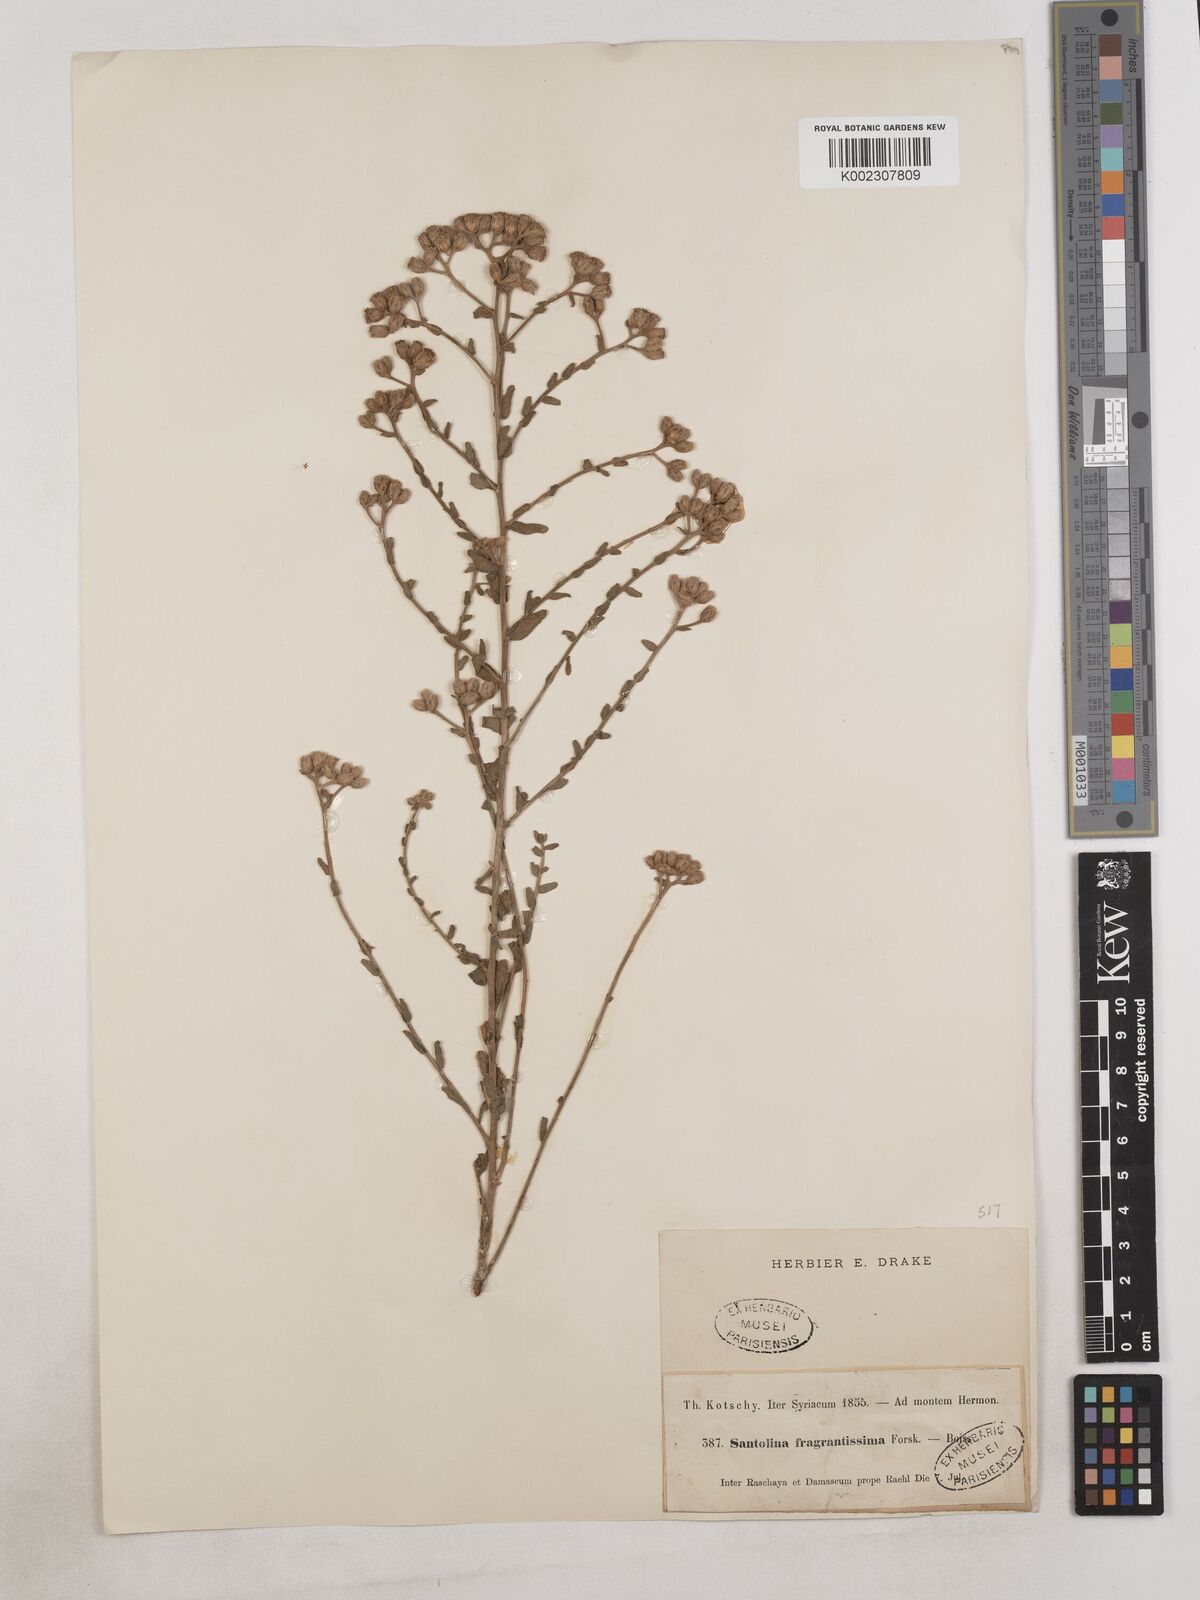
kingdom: Plantae
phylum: Tracheophyta
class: Magnoliopsida
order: Asterales
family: Asteraceae
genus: Achillea
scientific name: Achillea fragrantissima
